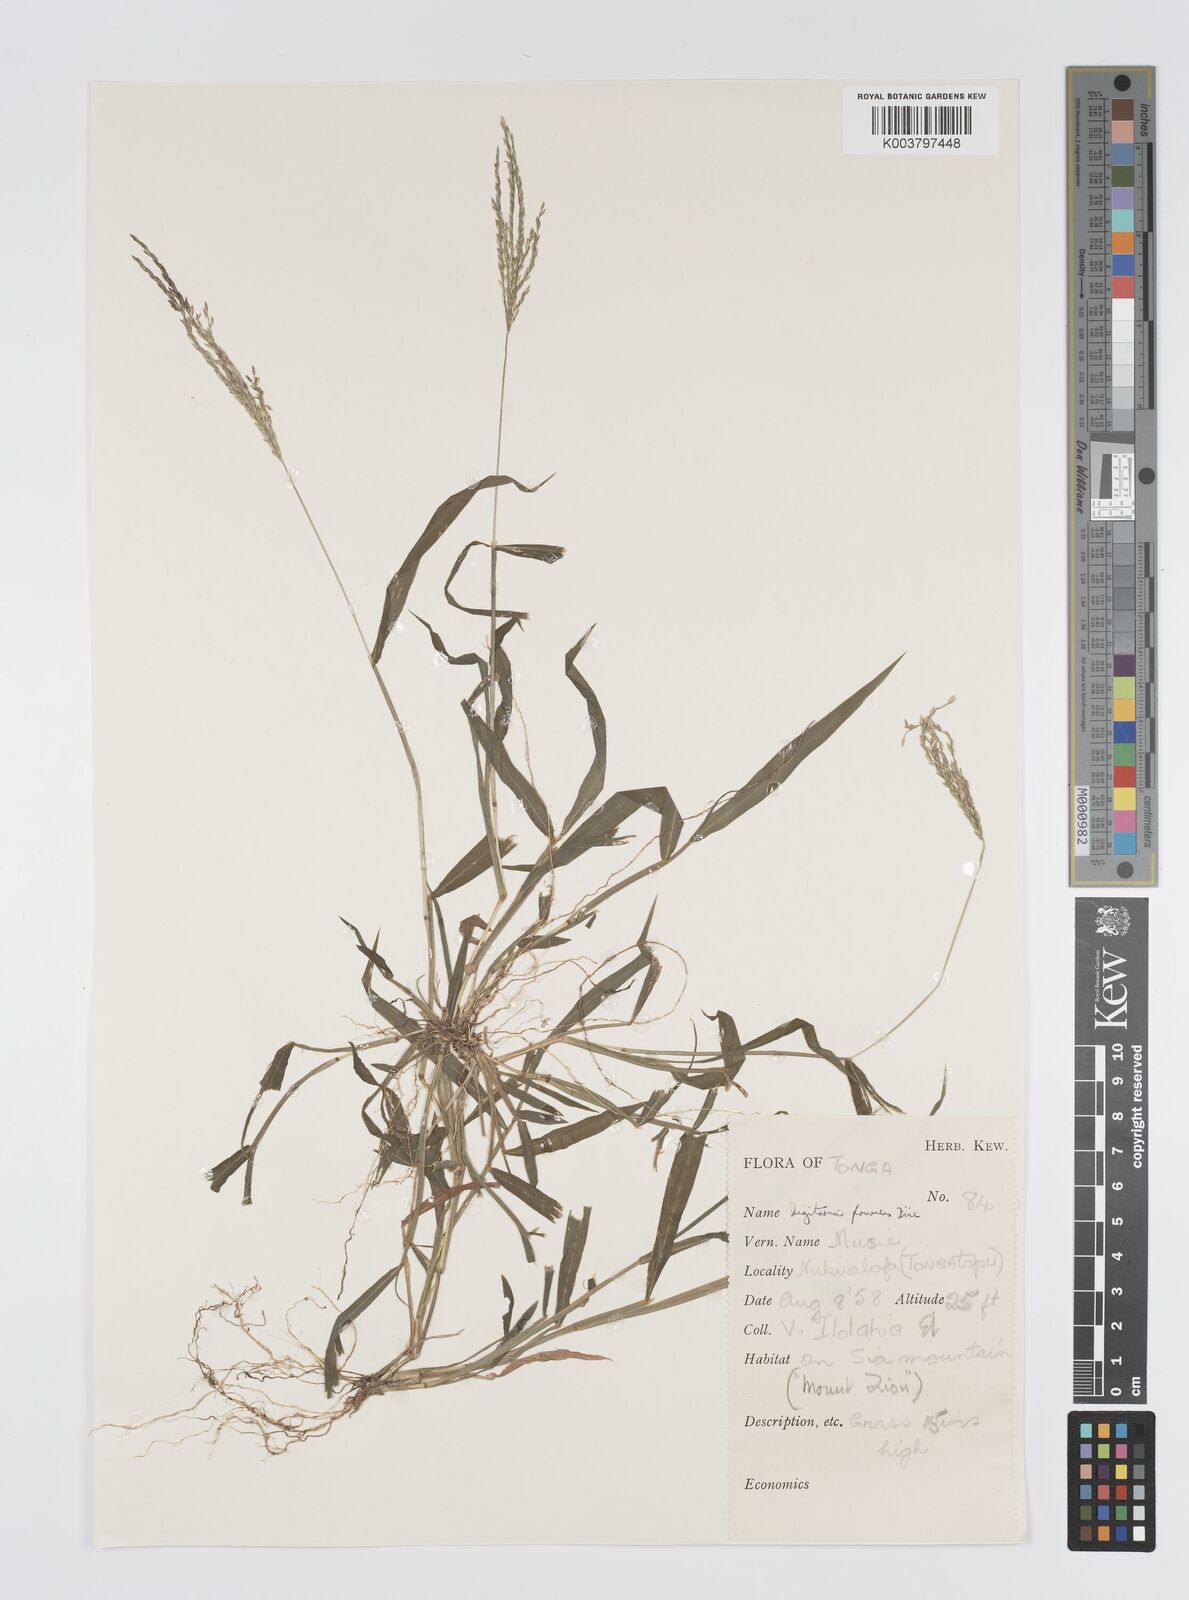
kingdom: Plantae
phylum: Tracheophyta
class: Liliopsida
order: Poales
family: Poaceae
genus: Digitaria
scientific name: Digitaria setigera
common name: East indian crabgrass
